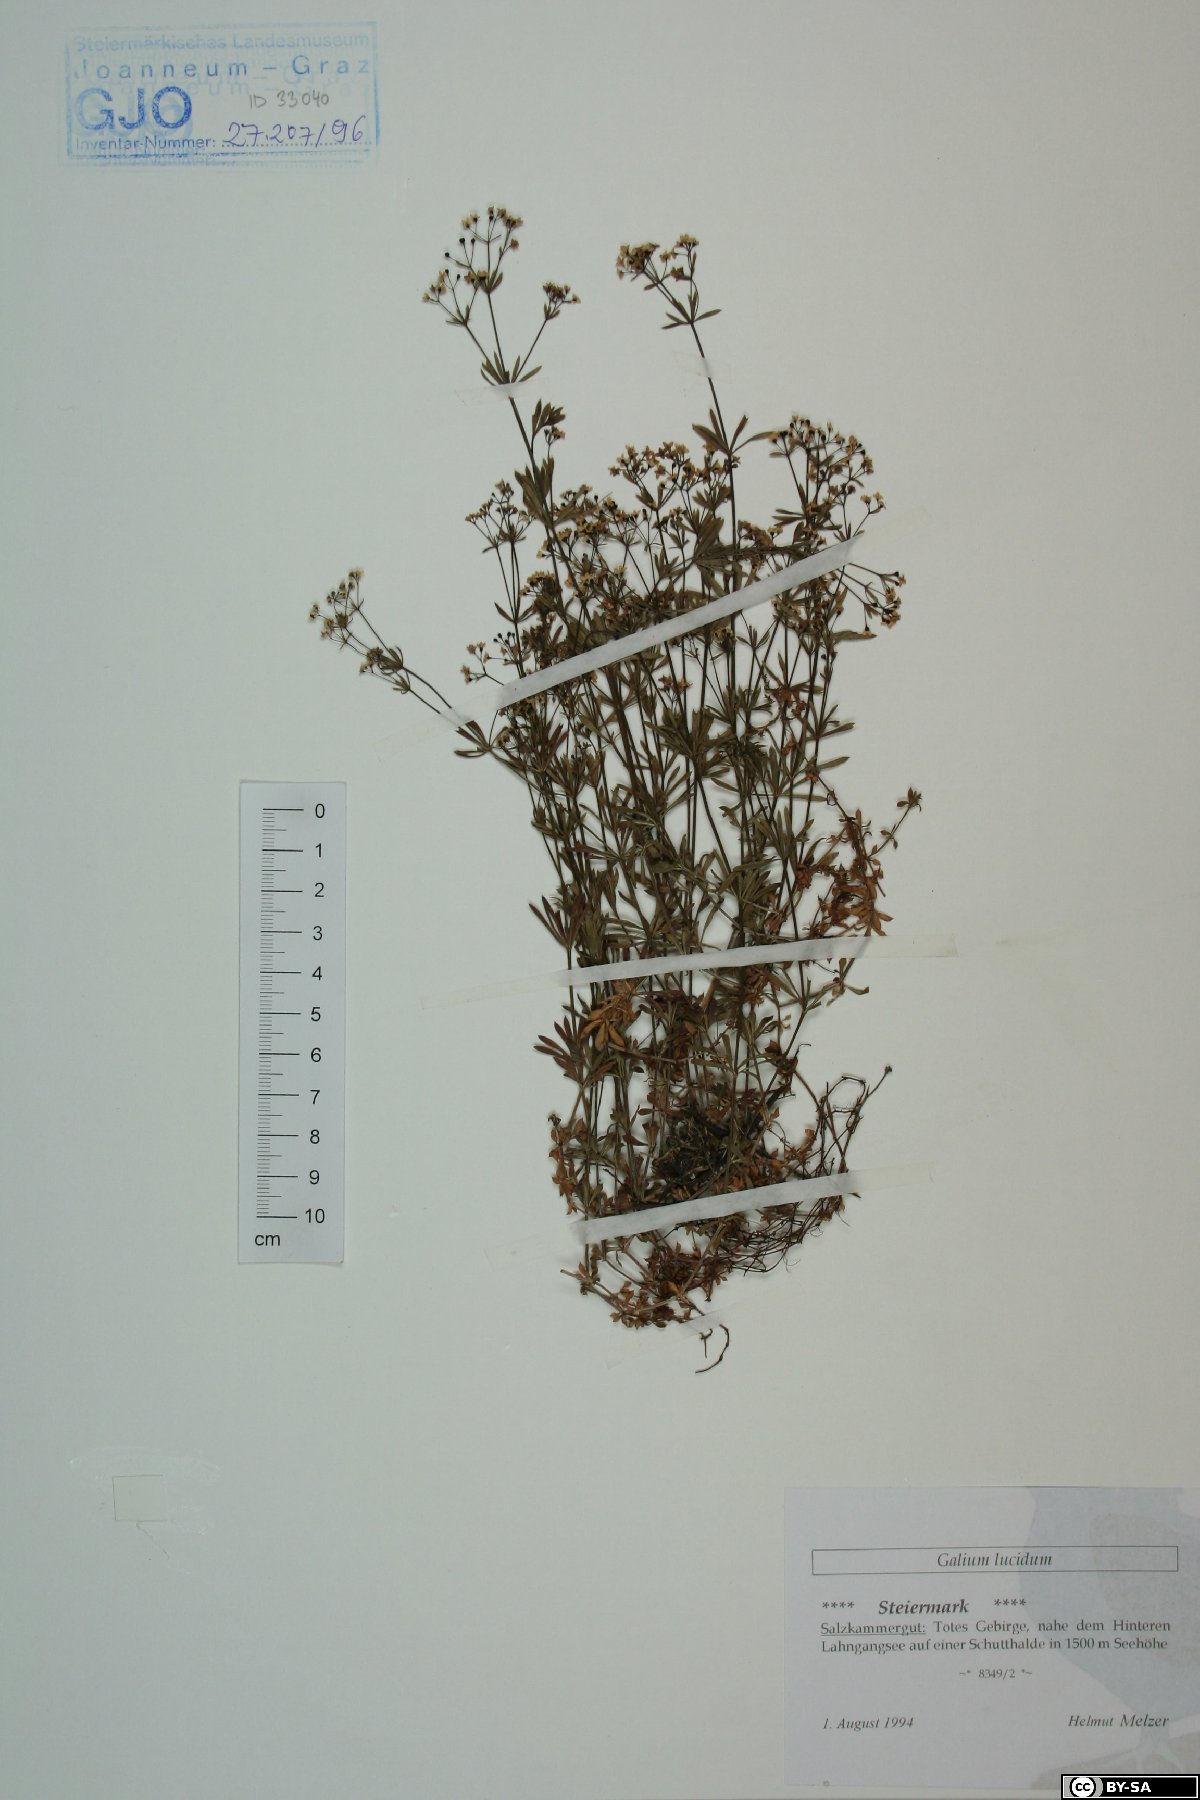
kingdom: Plantae
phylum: Tracheophyta
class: Magnoliopsida
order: Gentianales
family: Rubiaceae
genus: Galium
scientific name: Galium lucidum
